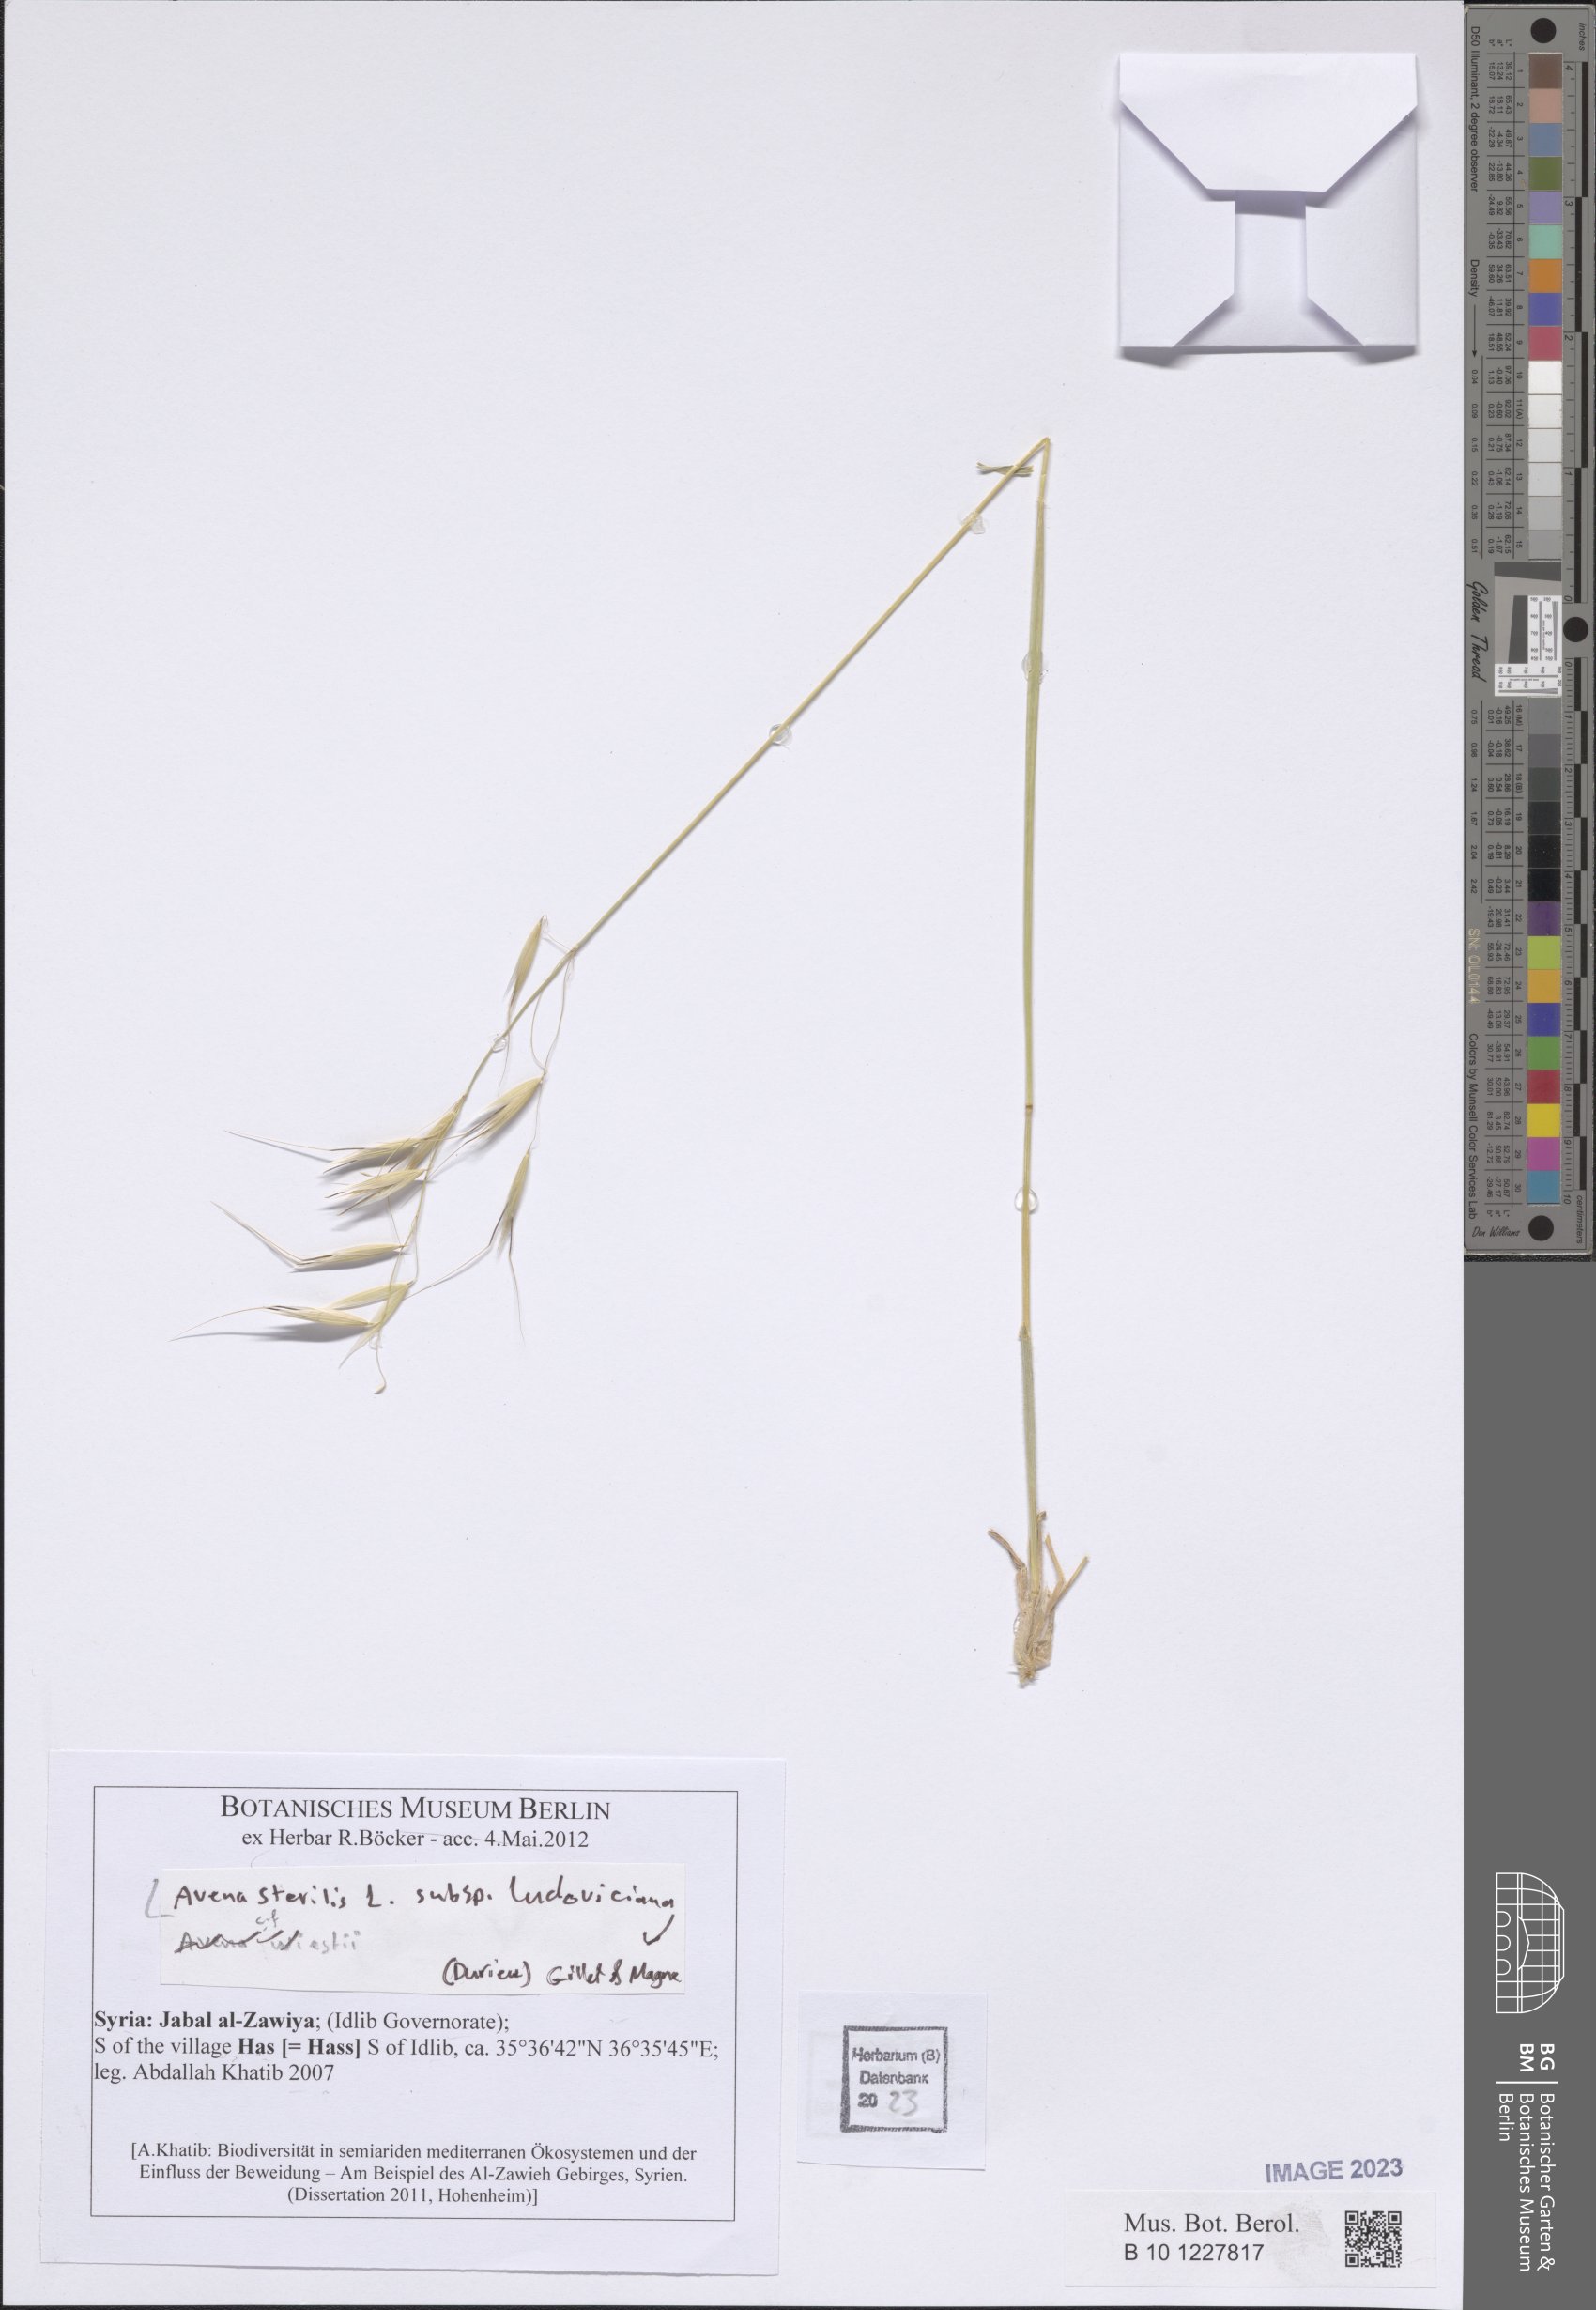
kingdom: Plantae
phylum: Tracheophyta
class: Liliopsida
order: Poales
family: Poaceae
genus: Avena
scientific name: Avena sterilis
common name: Animated oat
